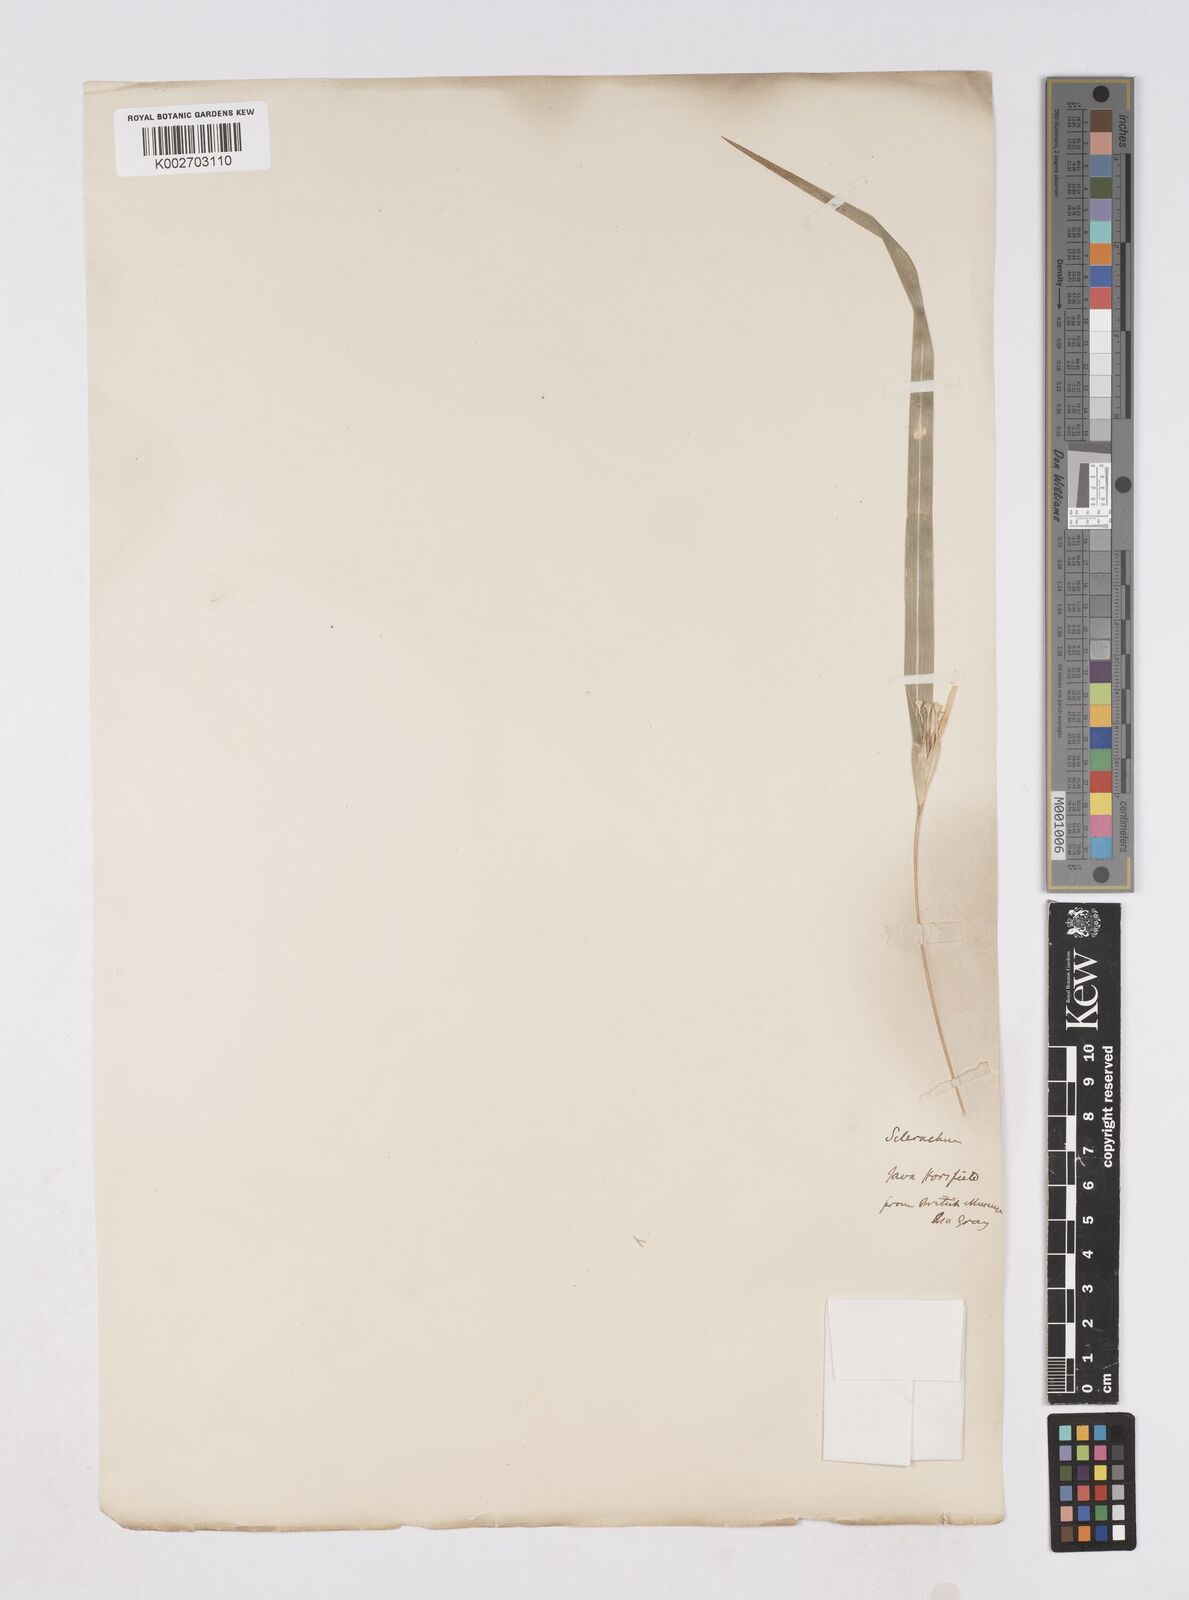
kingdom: Plantae
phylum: Tracheophyta
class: Liliopsida
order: Poales
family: Poaceae
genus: Polytoca
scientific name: Polytoca punctata
